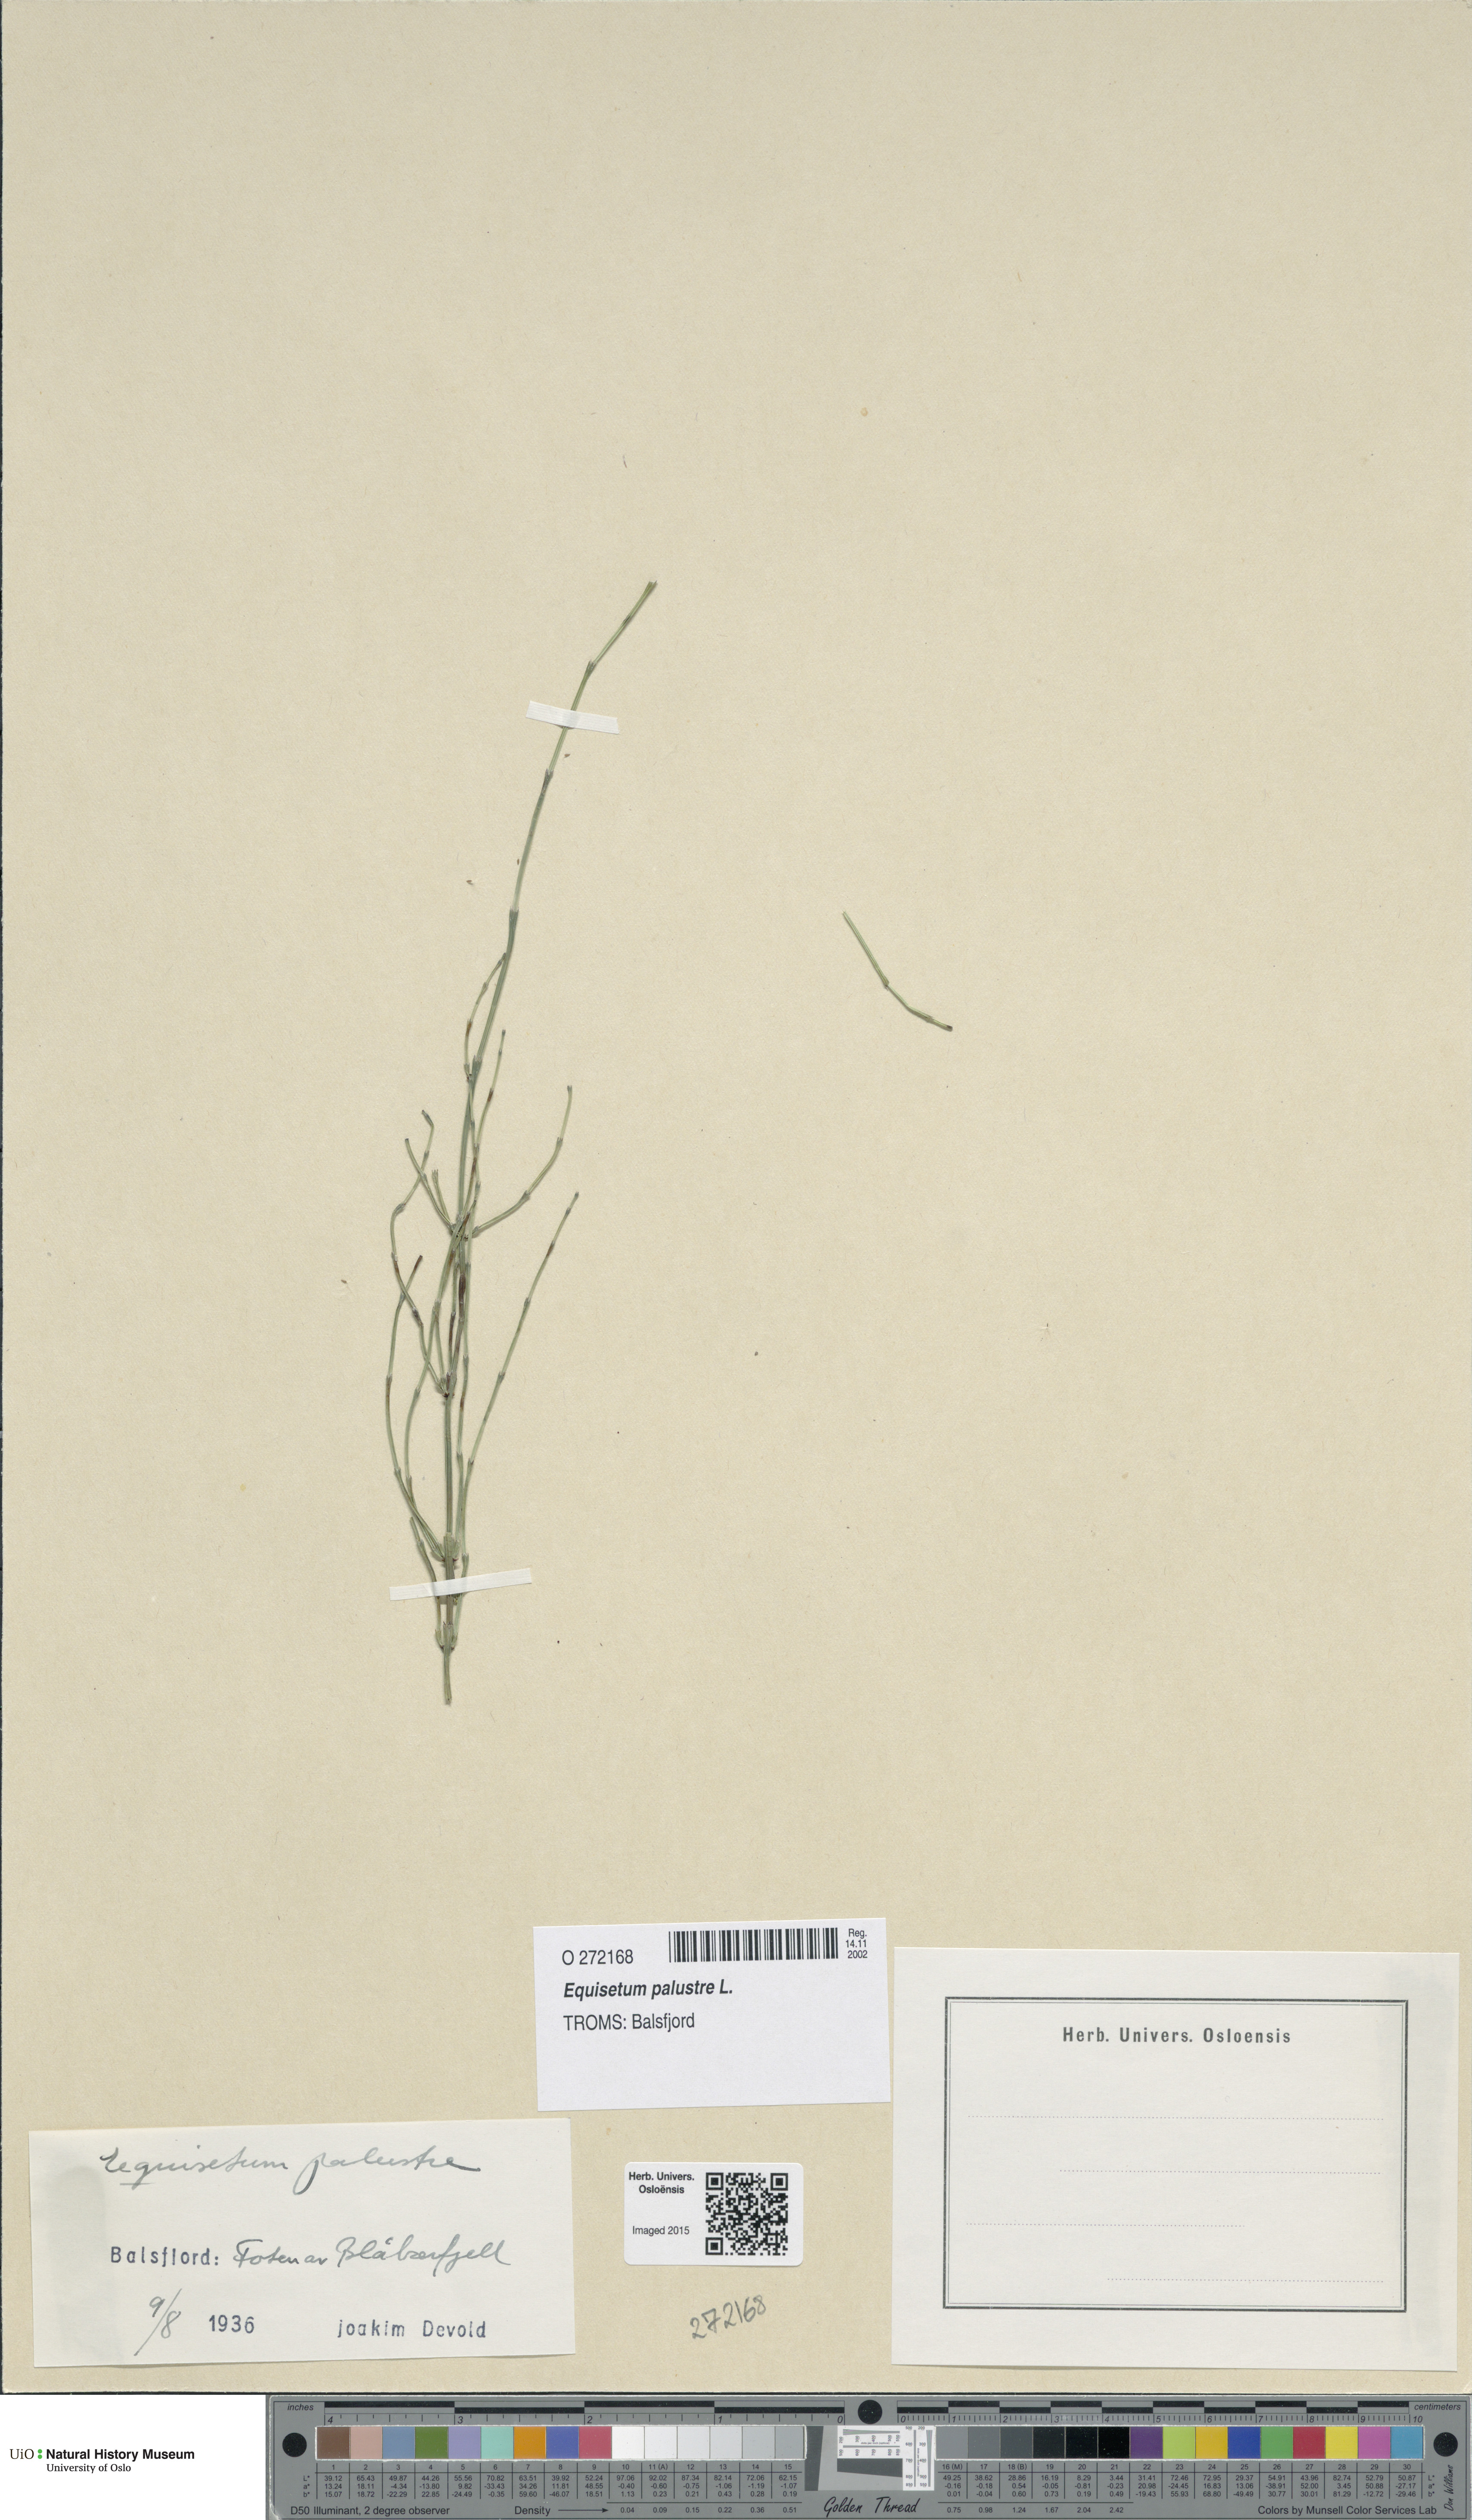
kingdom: Plantae
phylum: Tracheophyta
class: Polypodiopsida
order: Equisetales
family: Equisetaceae
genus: Equisetum
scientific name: Equisetum palustre
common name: Marsh horsetail
